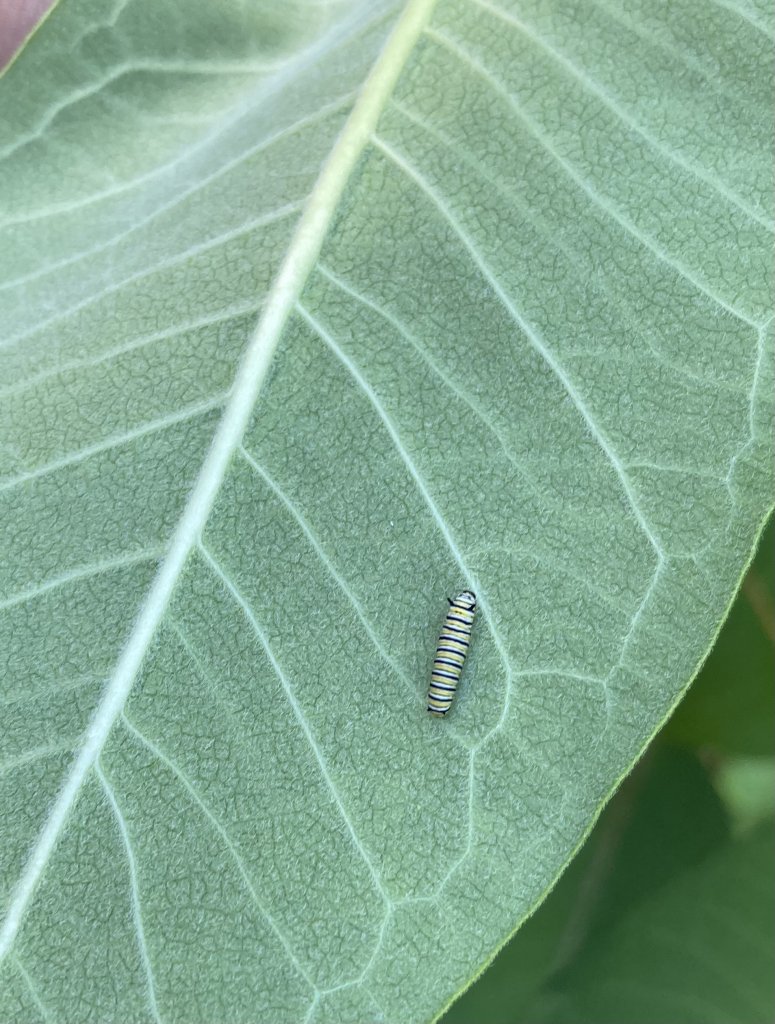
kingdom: Animalia
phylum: Arthropoda
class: Insecta
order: Lepidoptera
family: Nymphalidae
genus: Danaus
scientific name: Danaus plexippus
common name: Monarch
